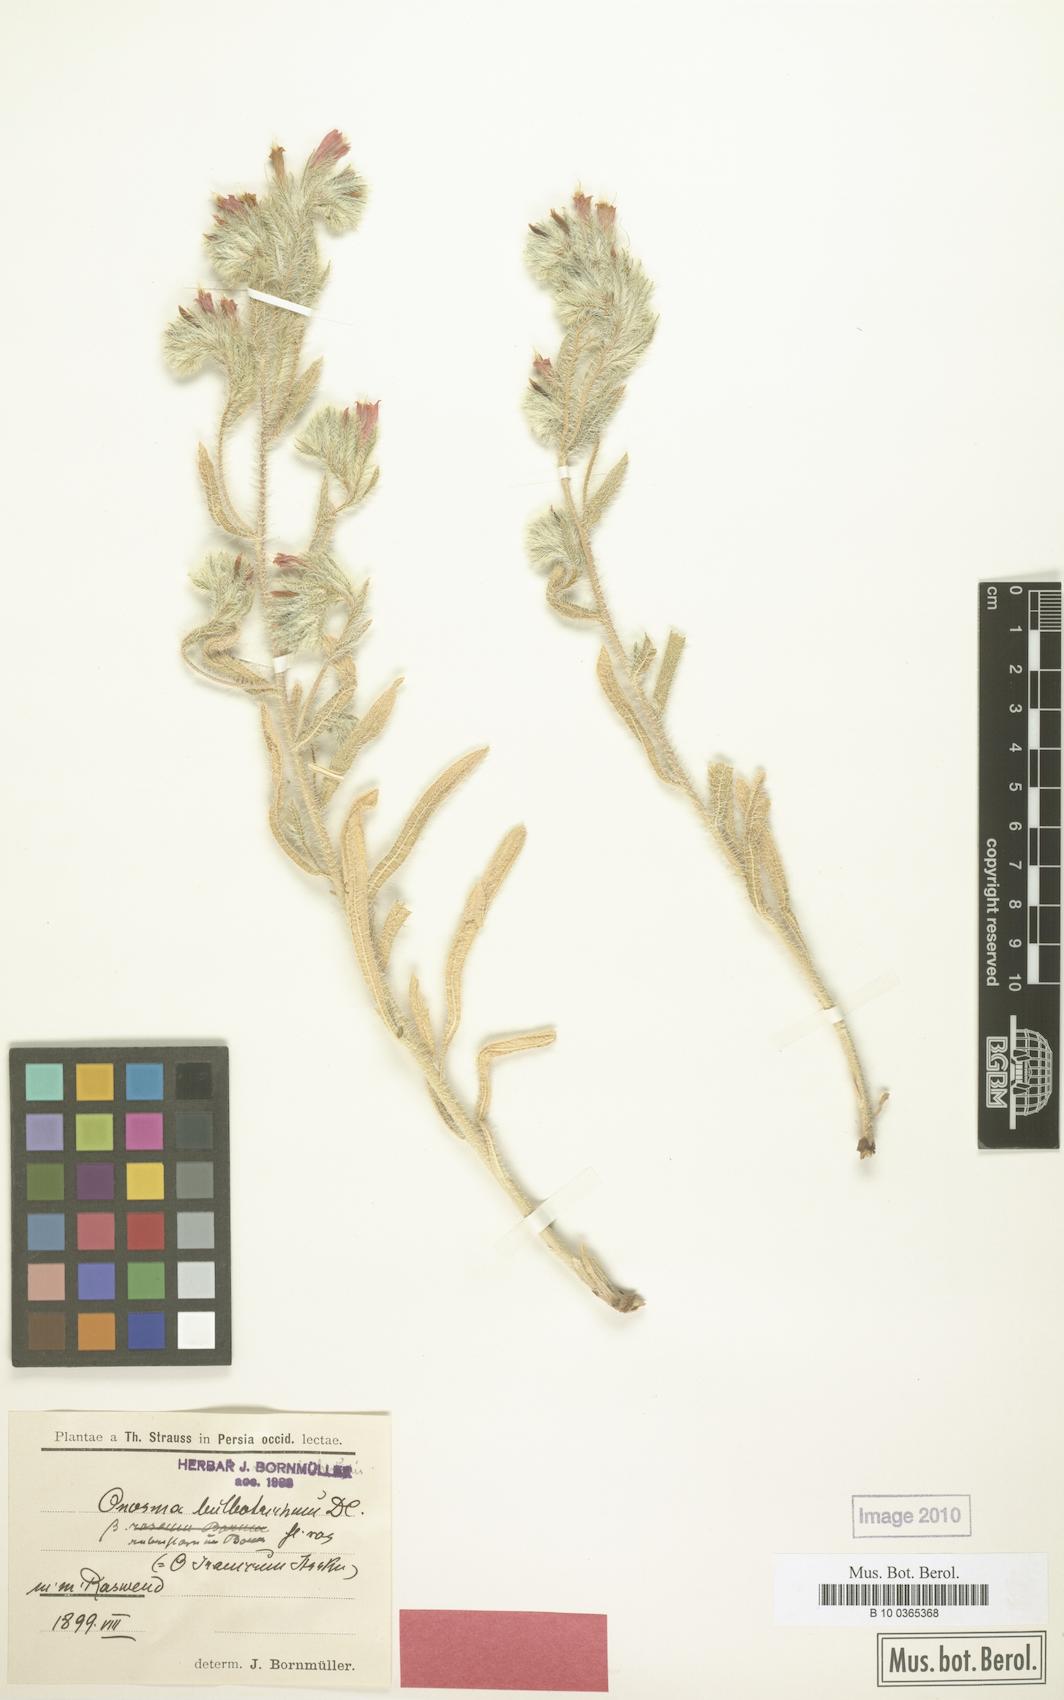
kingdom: Plantae
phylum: Tracheophyta
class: Magnoliopsida
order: Boraginales
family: Boraginaceae
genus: Onosma
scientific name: Onosma straussii
